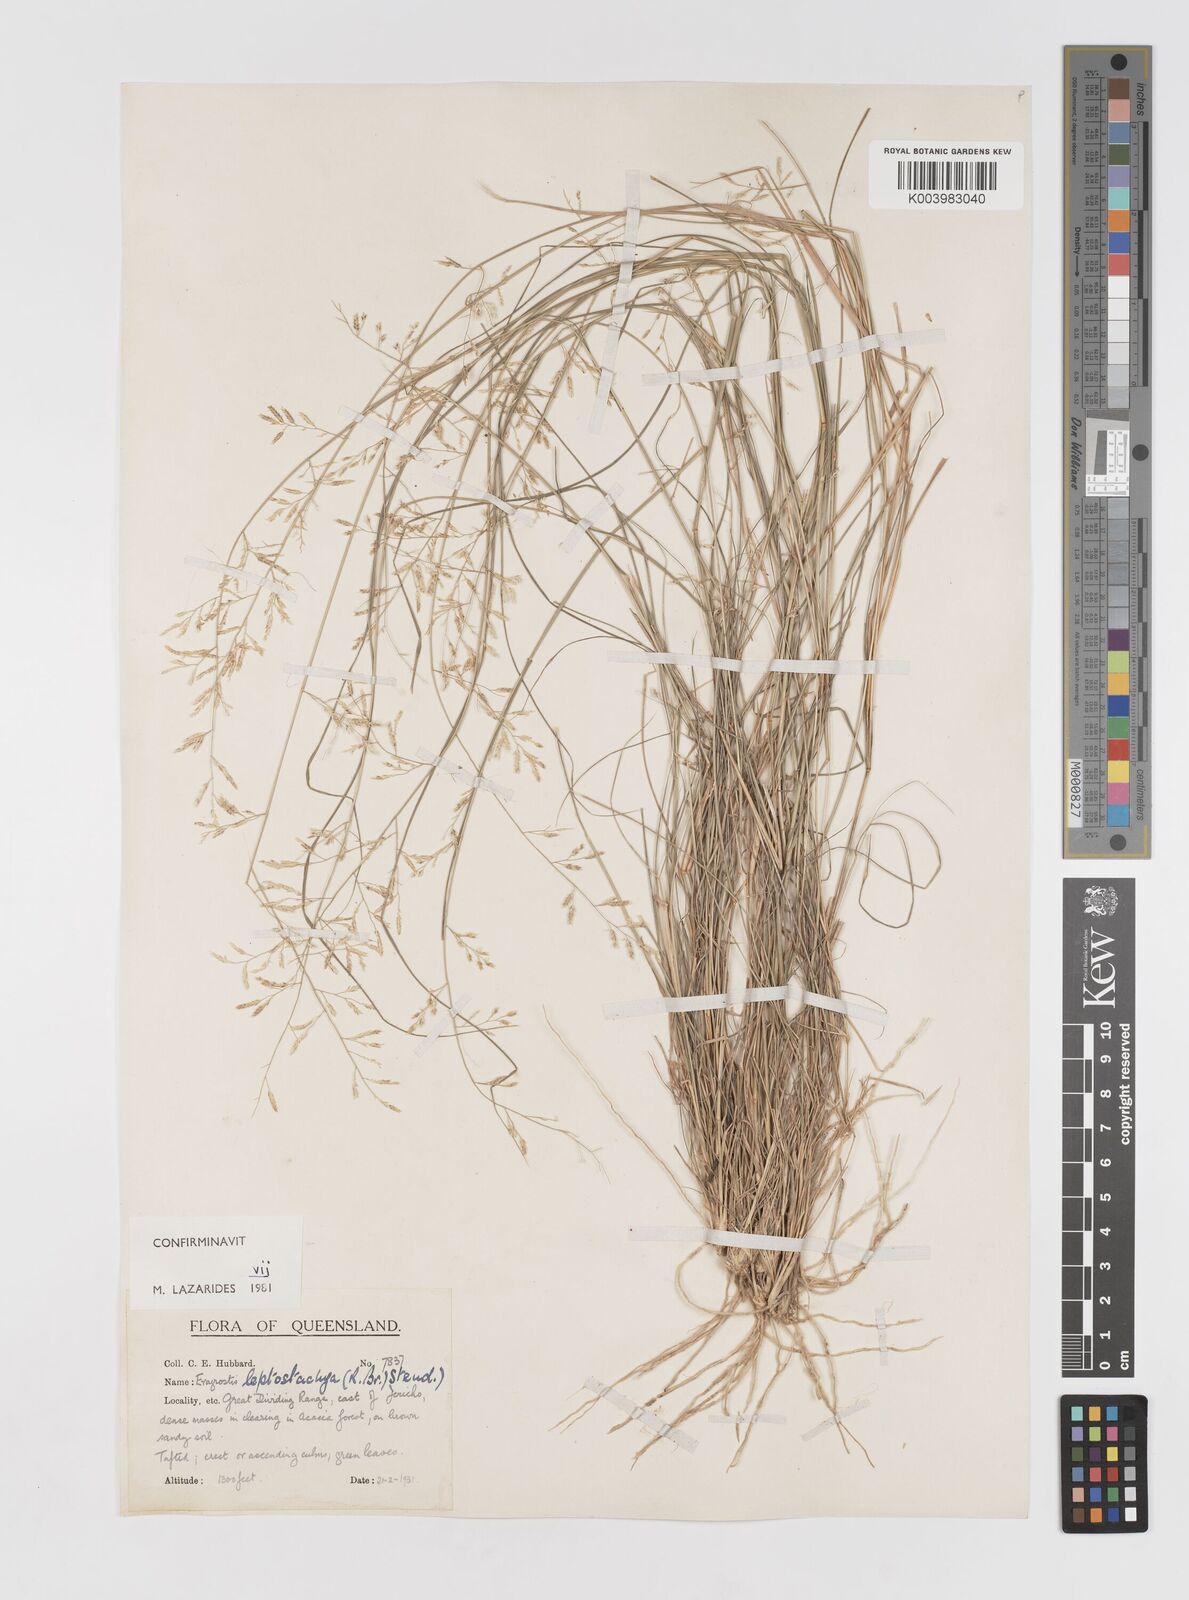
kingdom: Plantae
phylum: Tracheophyta
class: Liliopsida
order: Poales
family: Poaceae
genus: Eragrostis
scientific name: Eragrostis leptostachya
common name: Australian lovegrass
